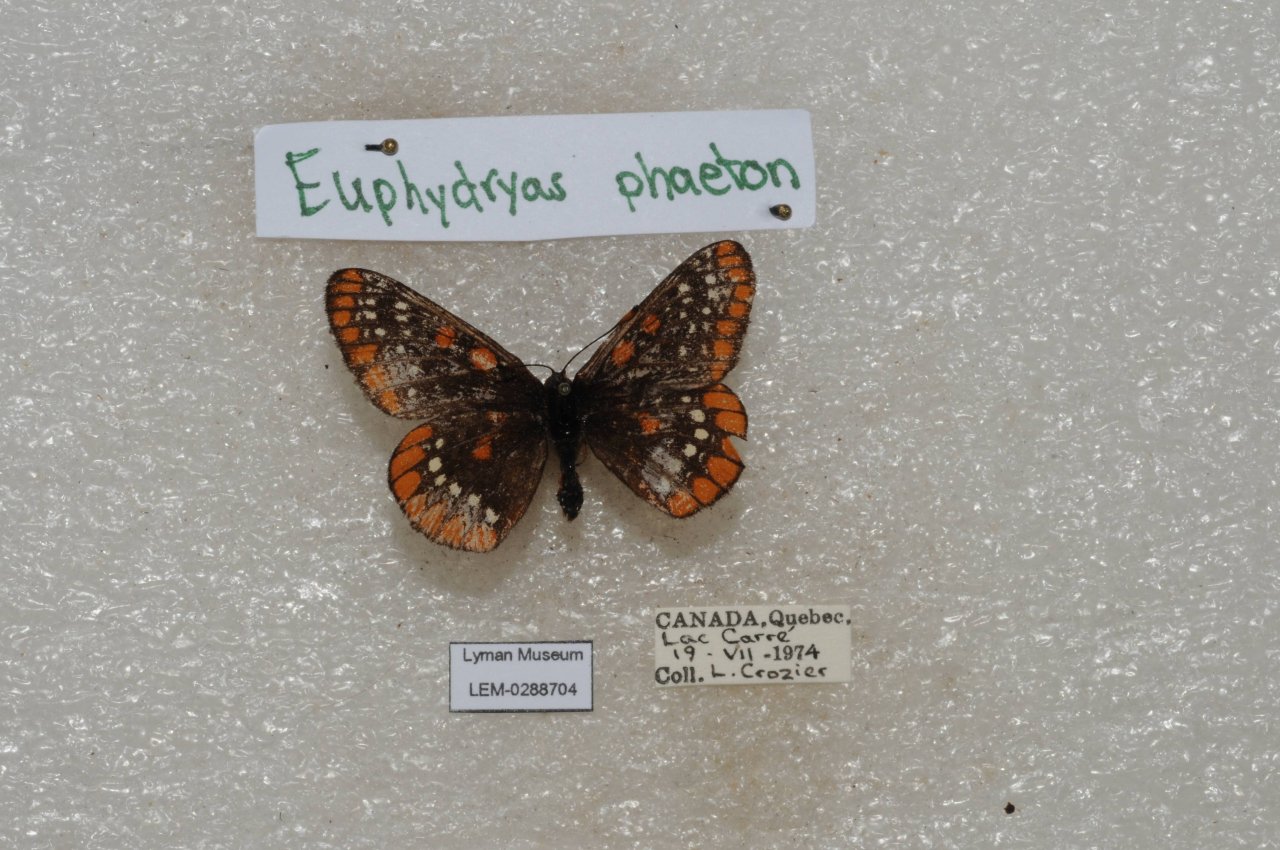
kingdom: Animalia
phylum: Arthropoda
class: Insecta
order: Lepidoptera
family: Nymphalidae
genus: Euphydryas
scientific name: Euphydryas phaeton
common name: Baltimore Checkerspot
